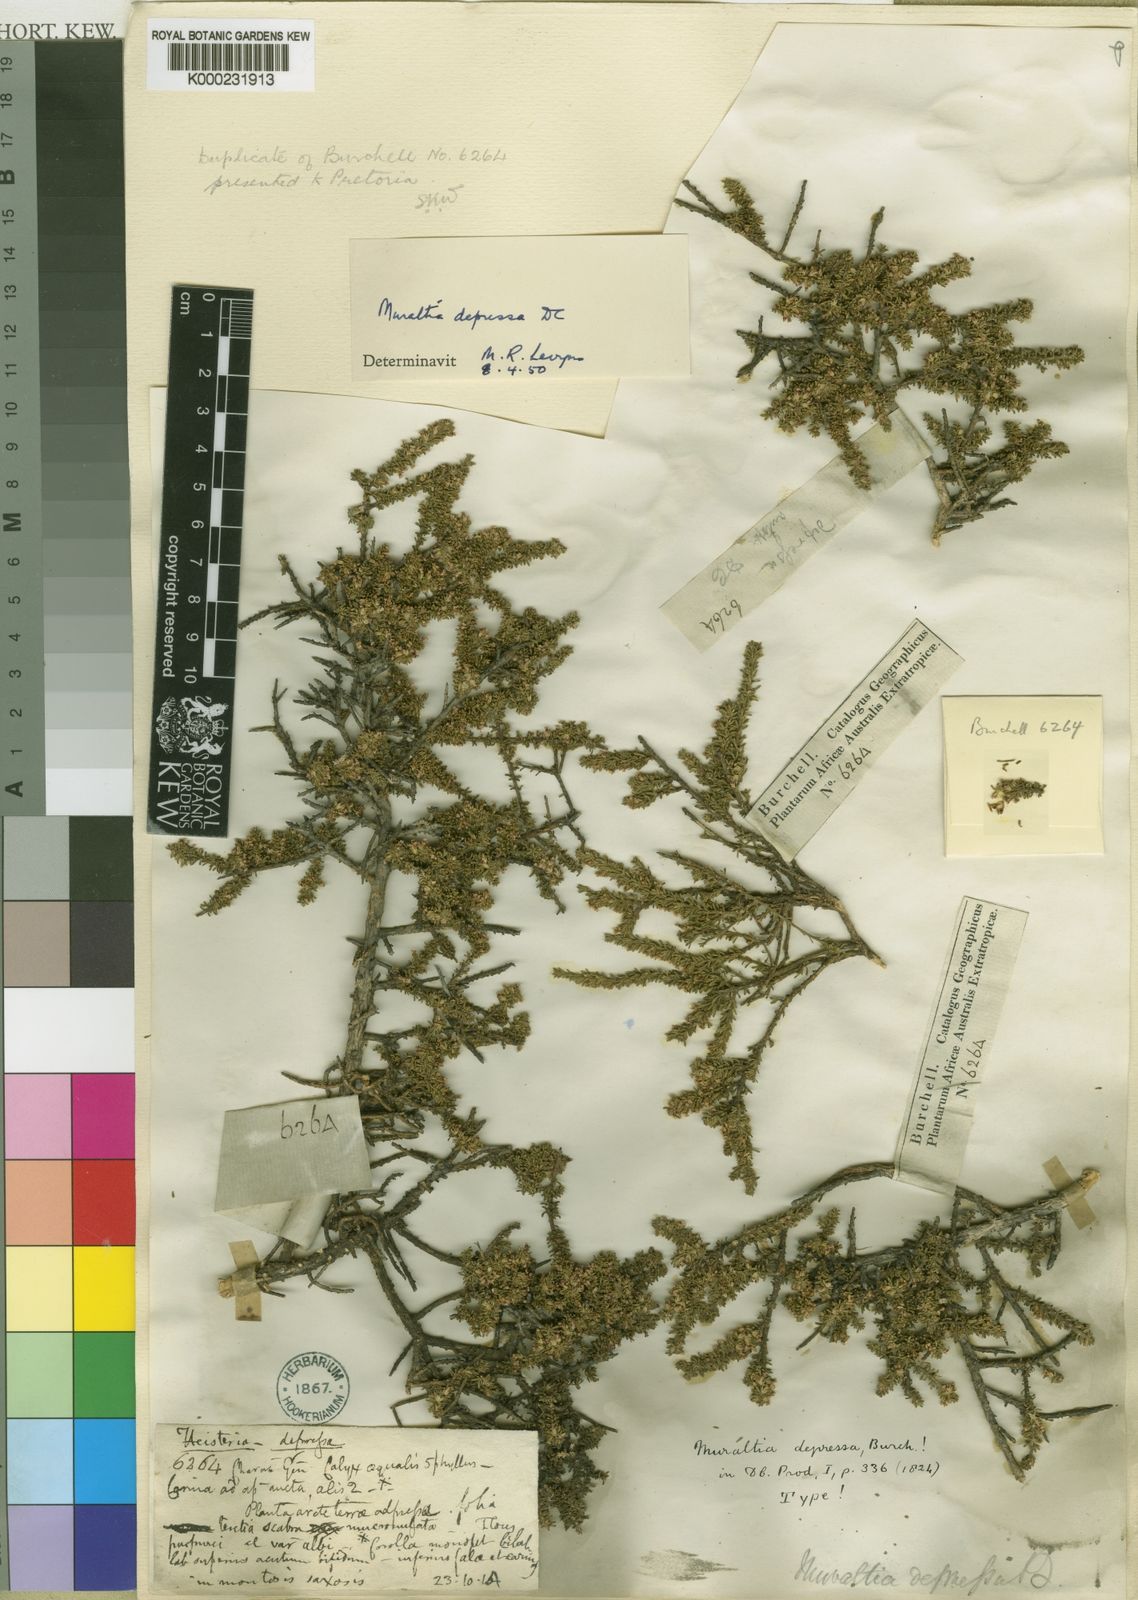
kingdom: Plantae
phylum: Tracheophyta
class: Magnoliopsida
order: Fabales
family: Polygalaceae
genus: Muraltia
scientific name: Muraltia depressa
